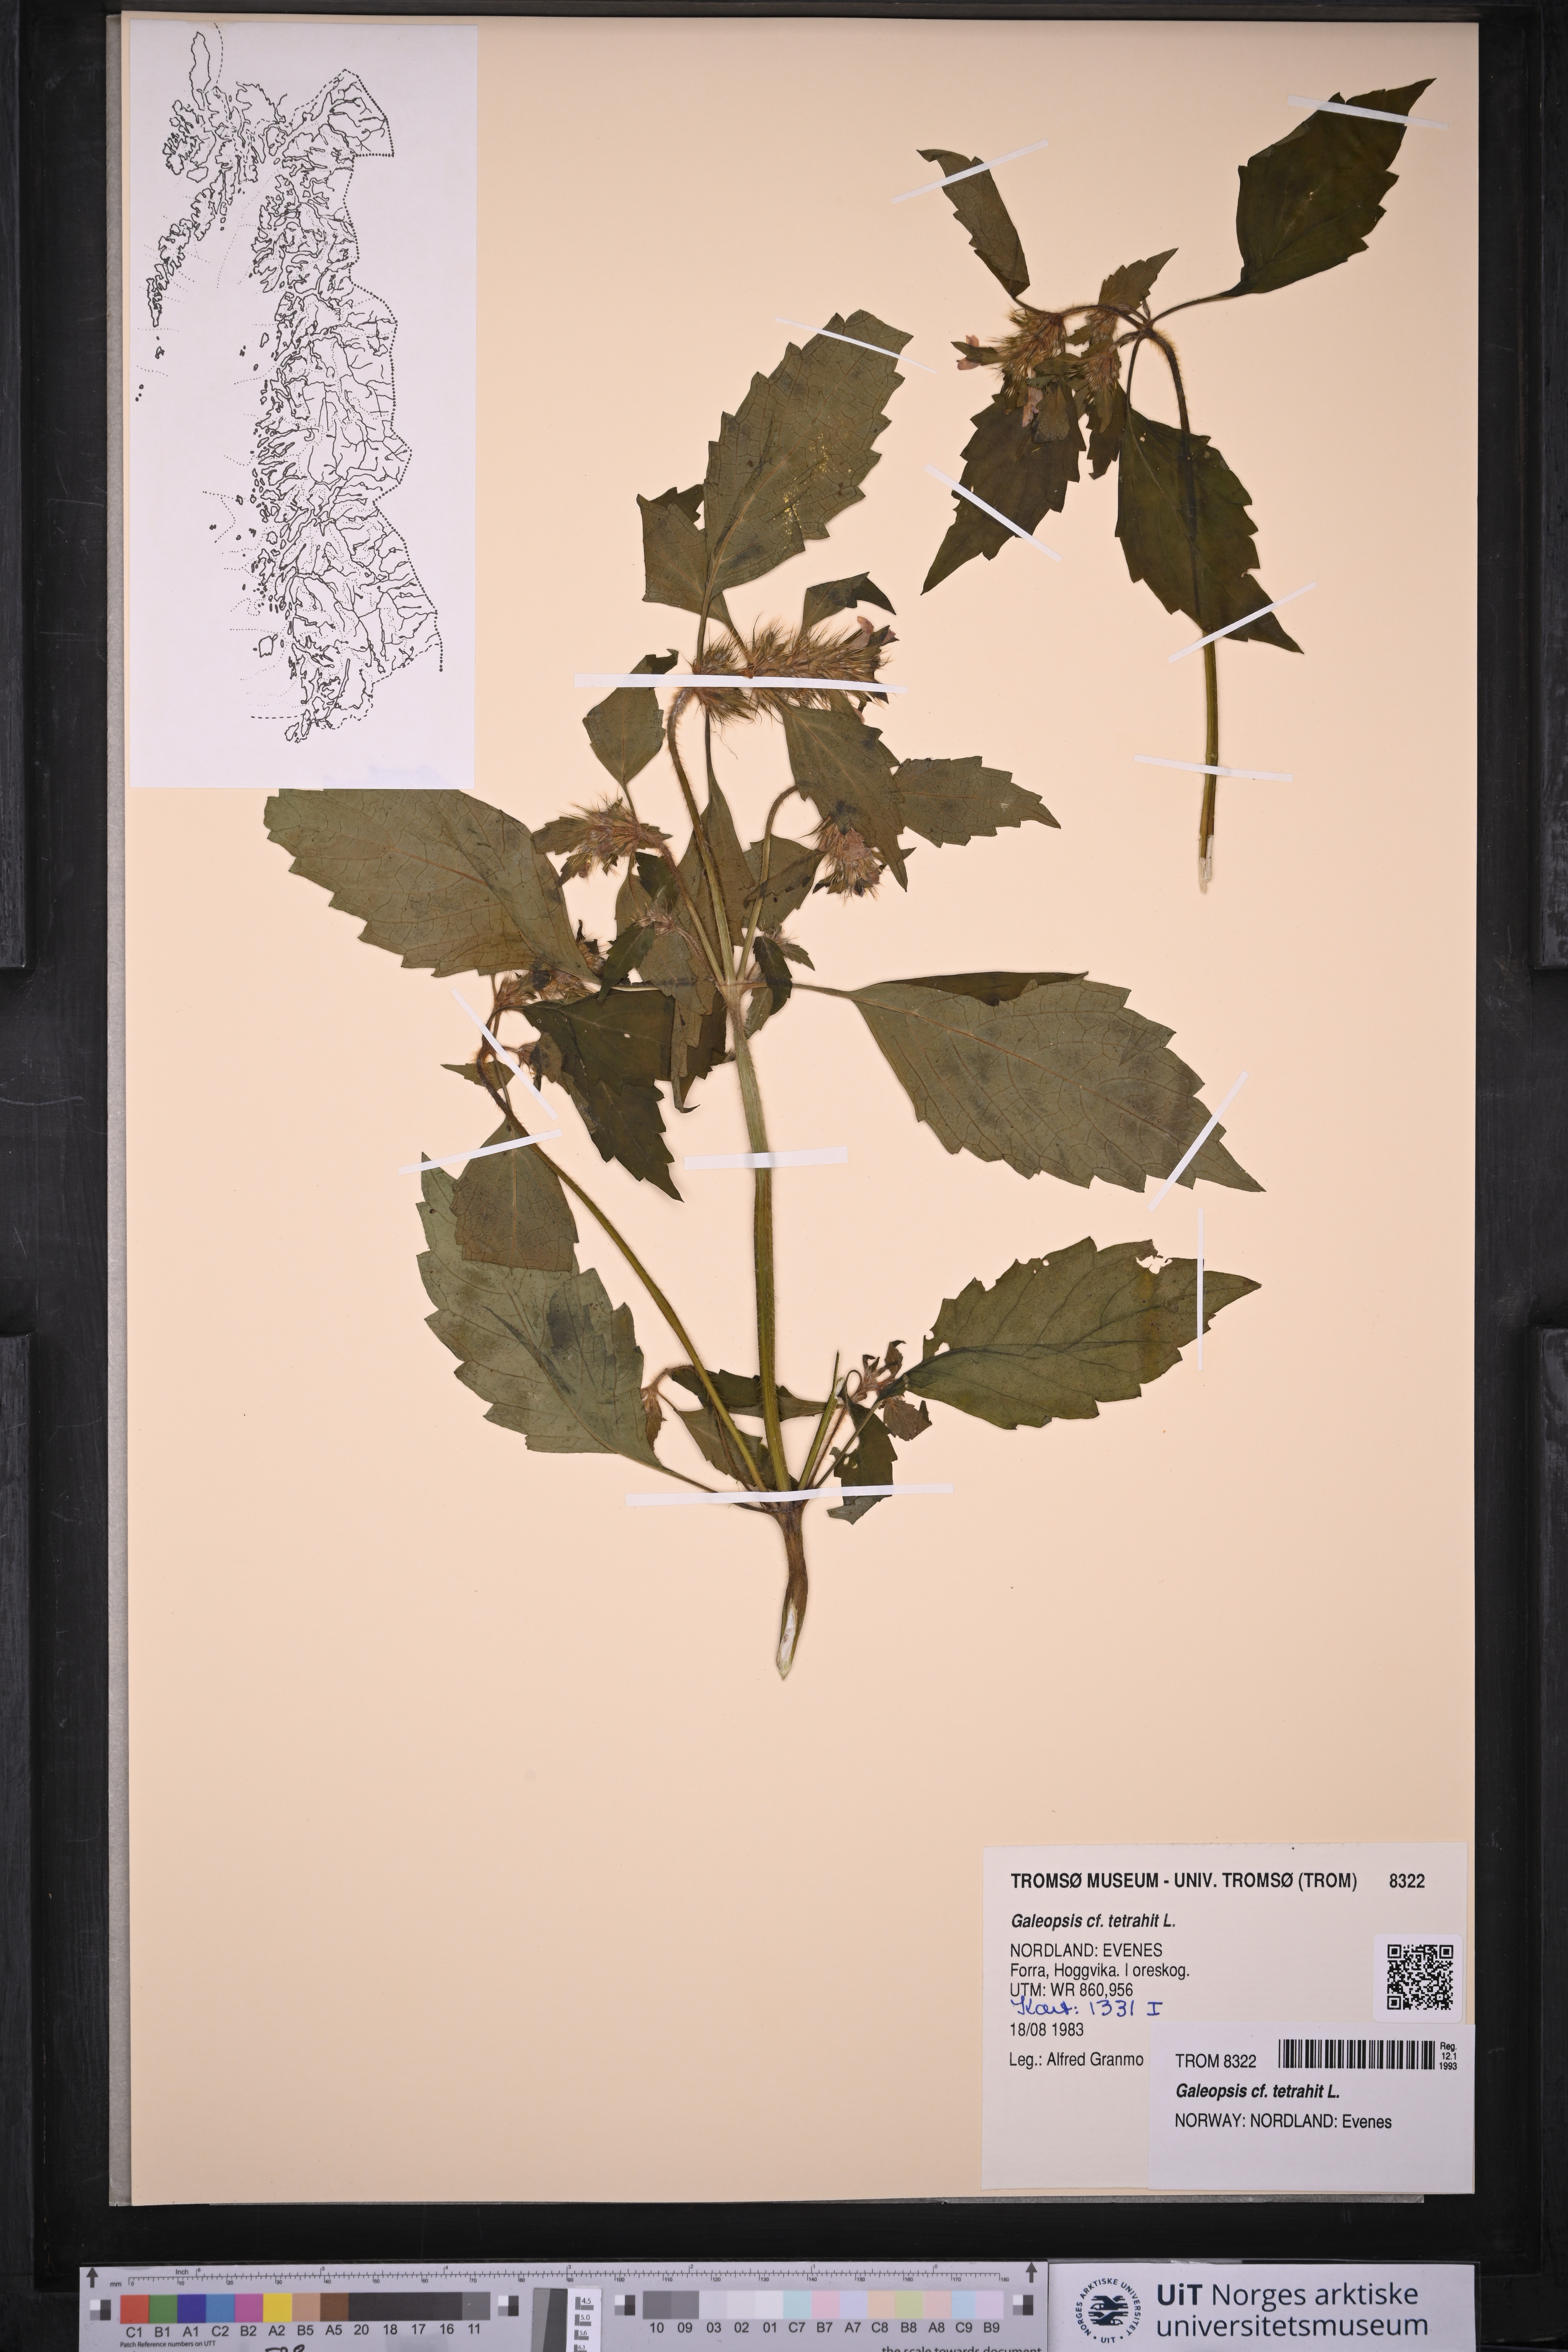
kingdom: Plantae
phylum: Tracheophyta
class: Magnoliopsida
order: Lamiales
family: Lamiaceae
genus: Galeopsis
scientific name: Galeopsis tetrahit
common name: Common hemp-nettle
